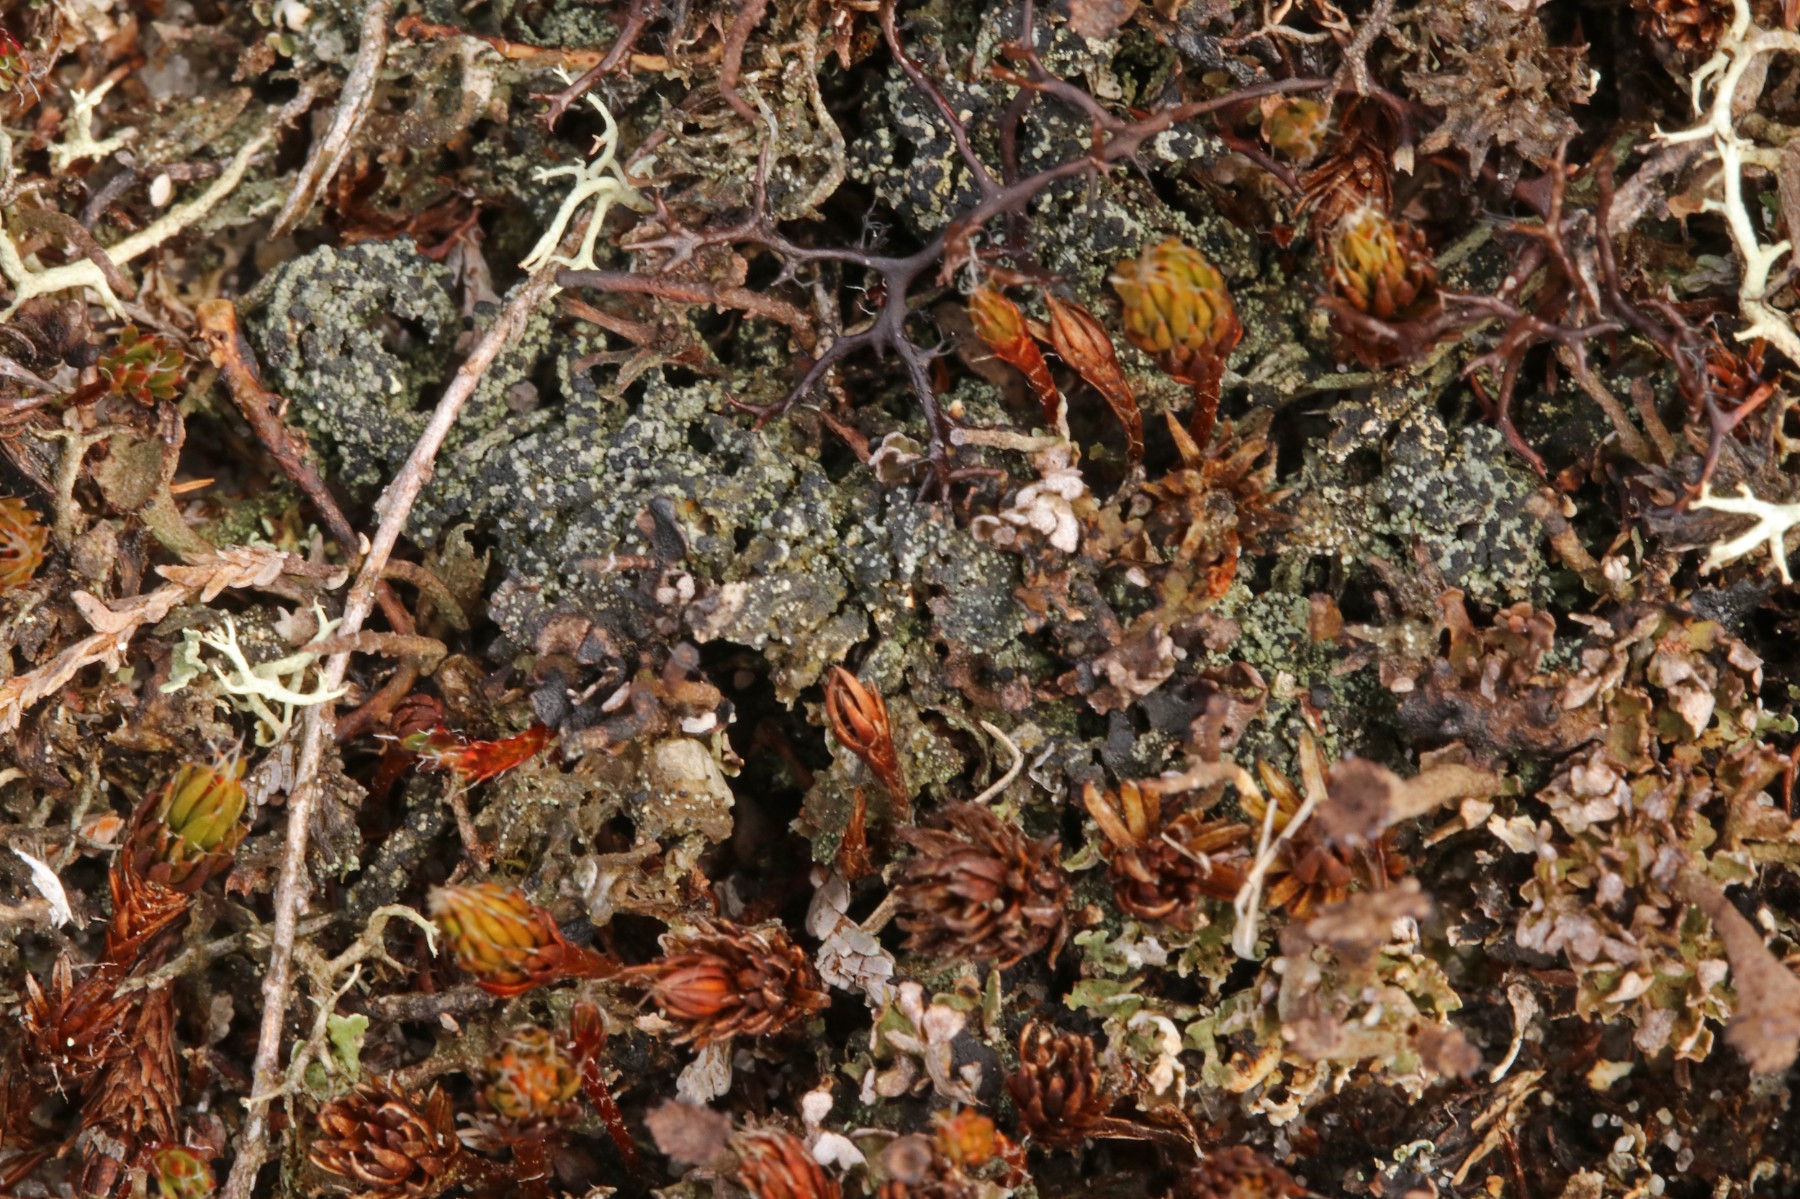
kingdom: Fungi
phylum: Ascomycota
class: Lecanoromycetes
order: Lecanorales
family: Byssolomataceae
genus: Micarea
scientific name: Micarea lignaria
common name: tørve-knaplav
